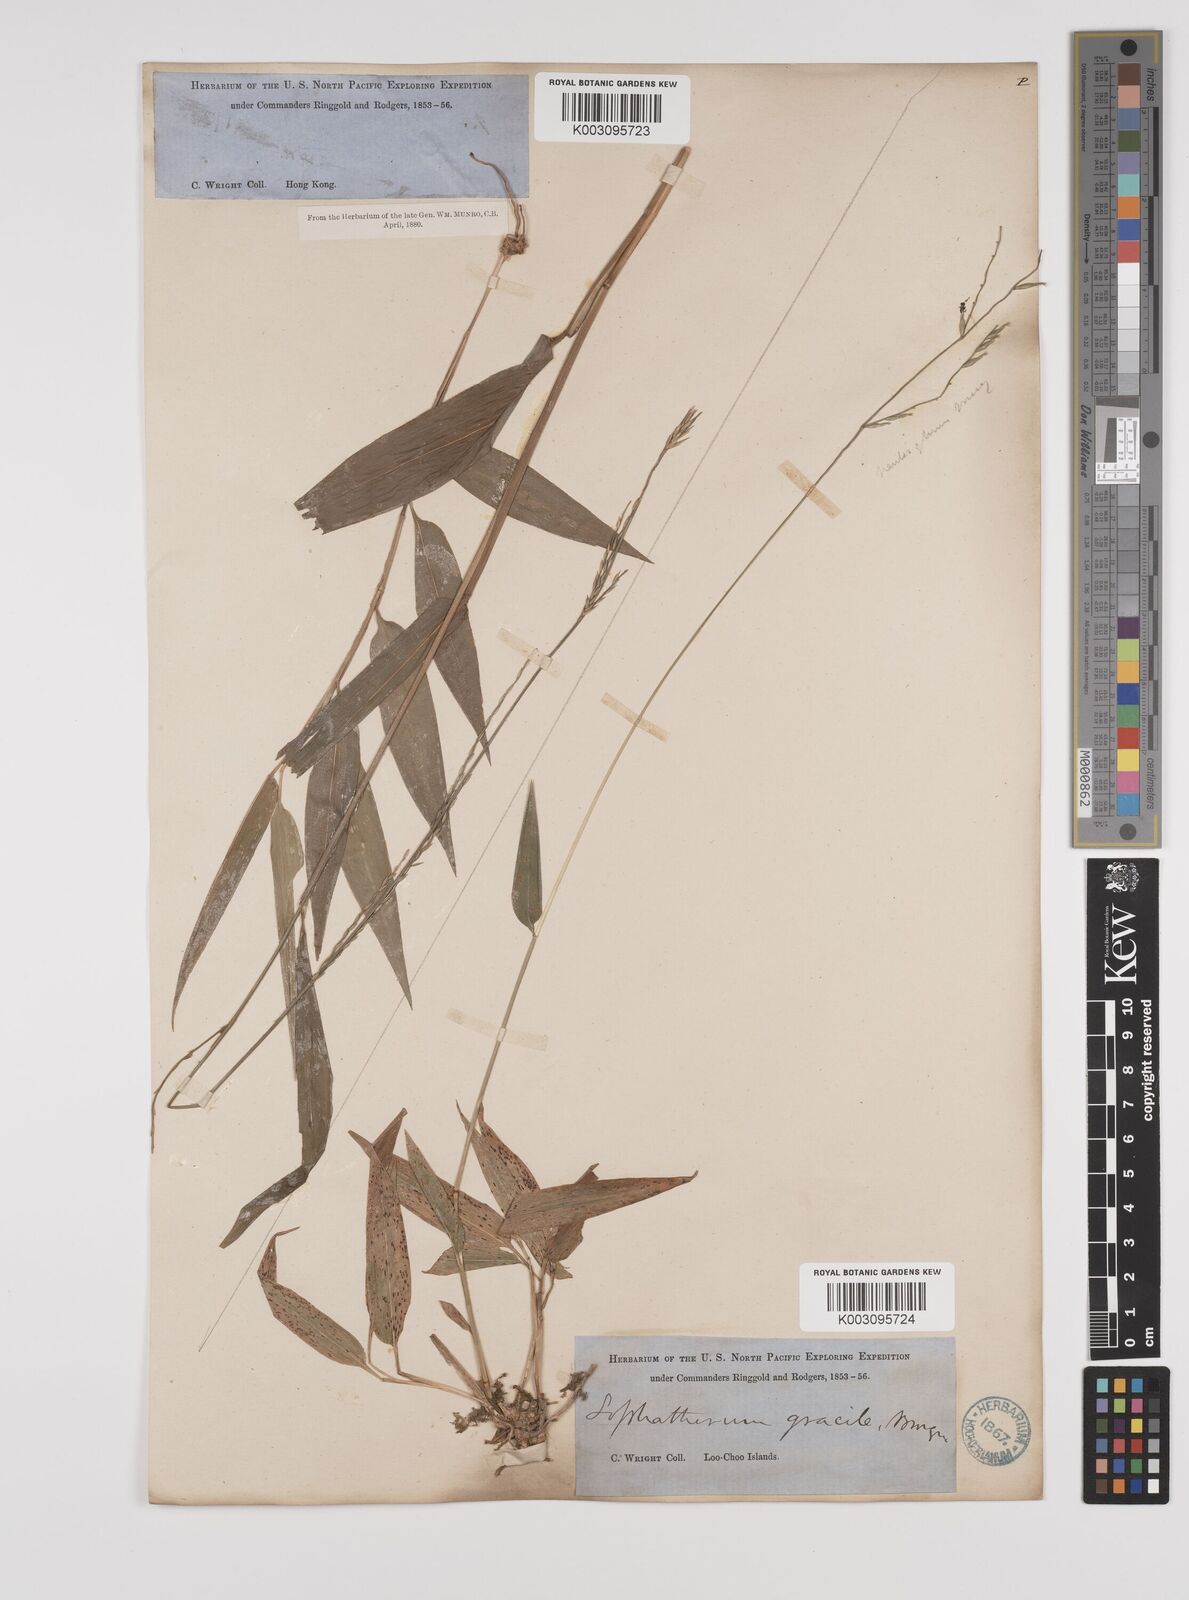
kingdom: Plantae
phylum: Tracheophyta
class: Liliopsida
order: Poales
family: Poaceae
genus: Lophatherum
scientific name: Lophatherum gracile
